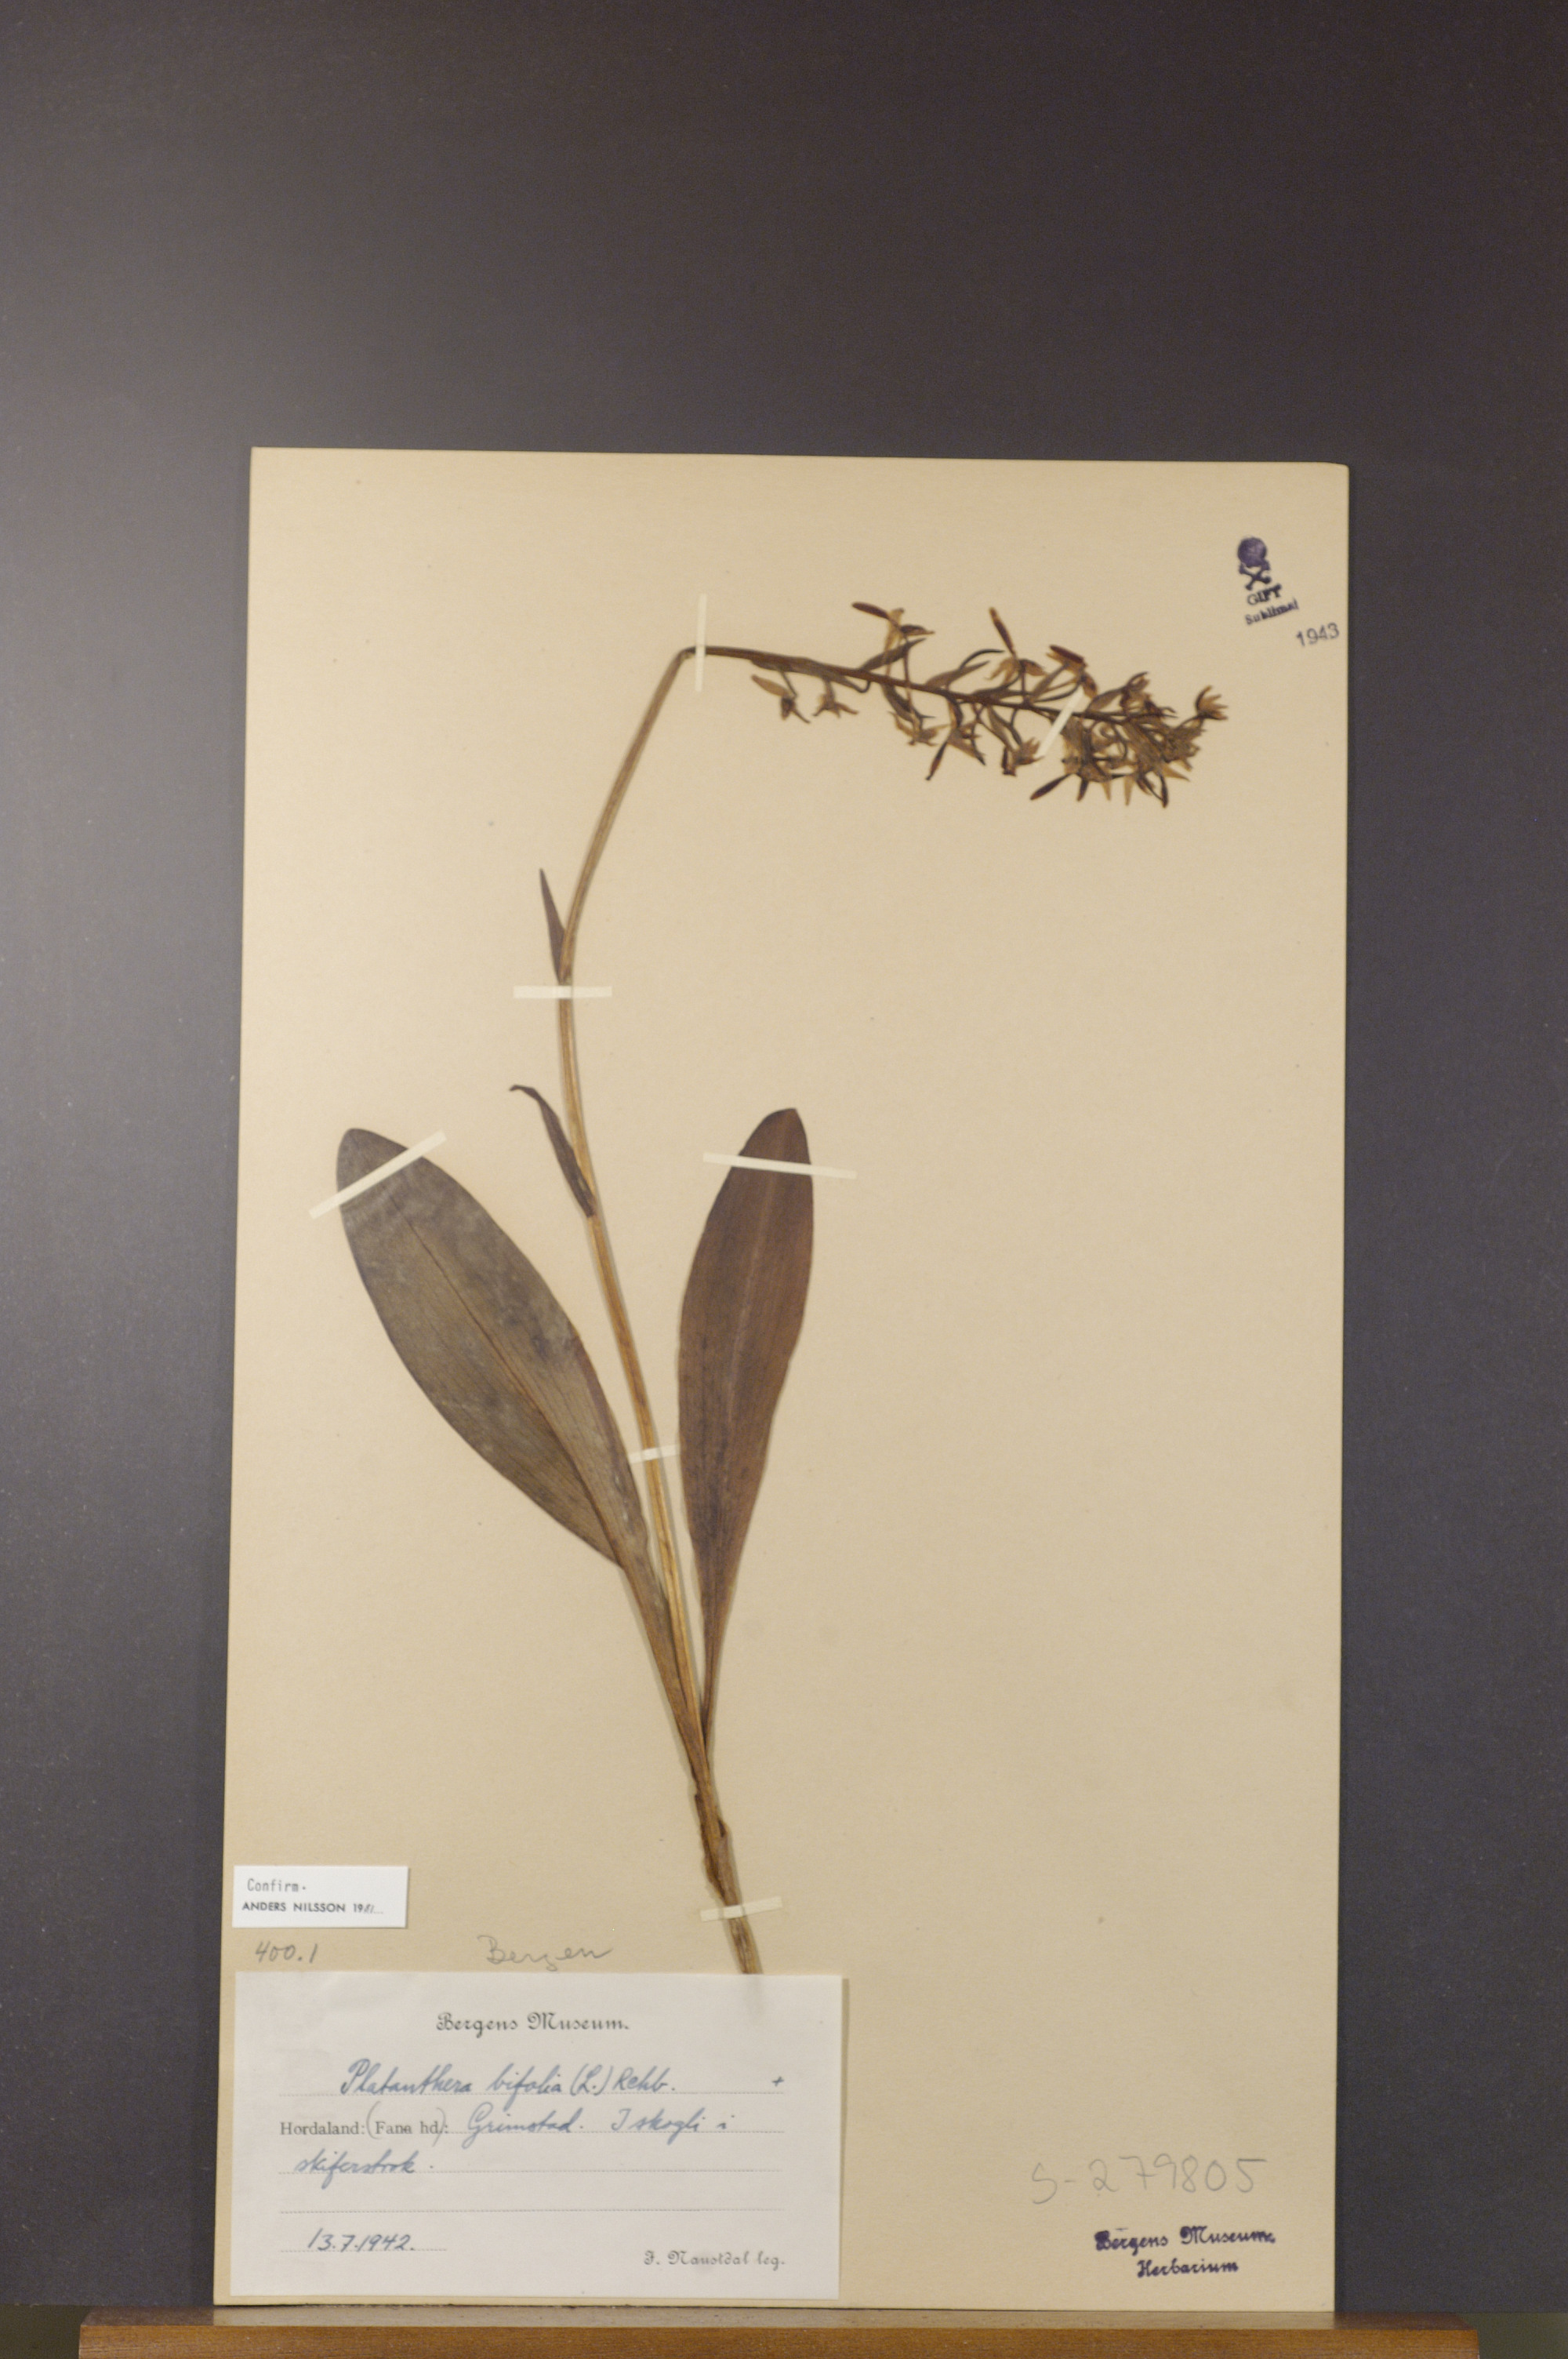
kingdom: Plantae
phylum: Tracheophyta
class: Liliopsida
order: Asparagales
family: Orchidaceae
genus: Platanthera
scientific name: Platanthera bifolia
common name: Lesser butterfly-orchid
